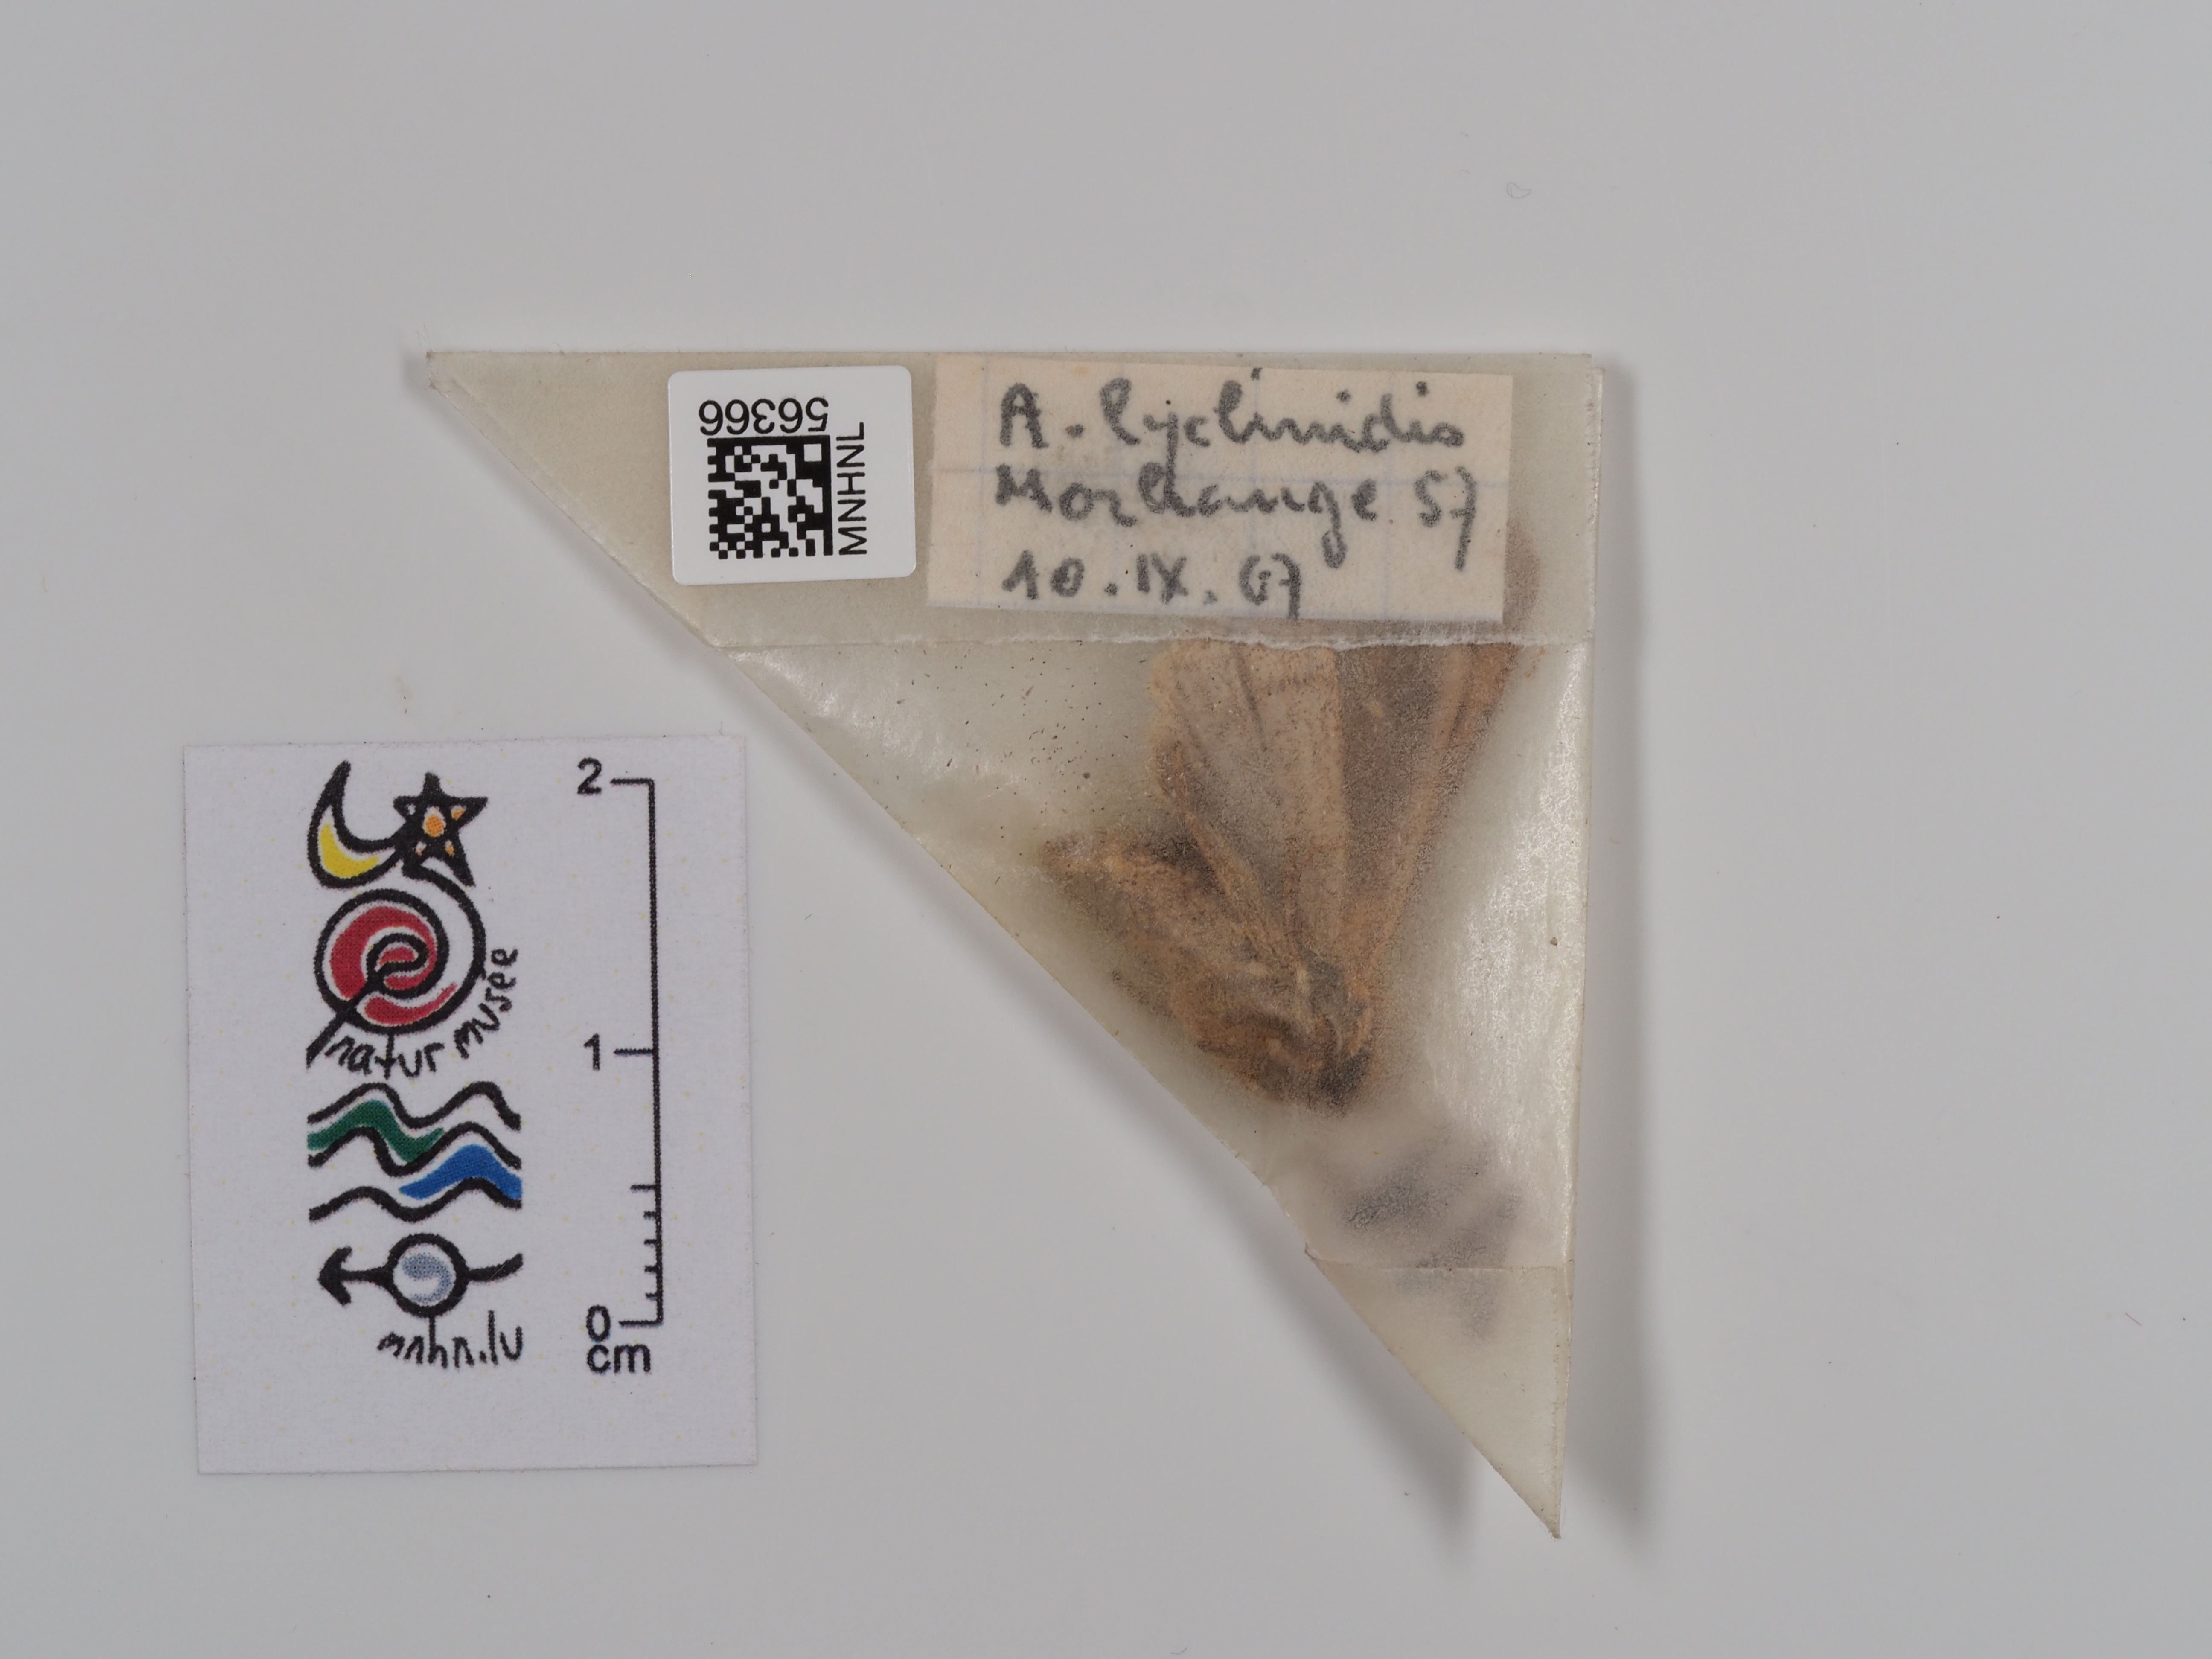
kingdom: Animalia
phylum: Arthropoda
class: Insecta
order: Lepidoptera
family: Noctuidae
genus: Agrochola
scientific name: Agrochola lychnidis
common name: Beaded chestnut
